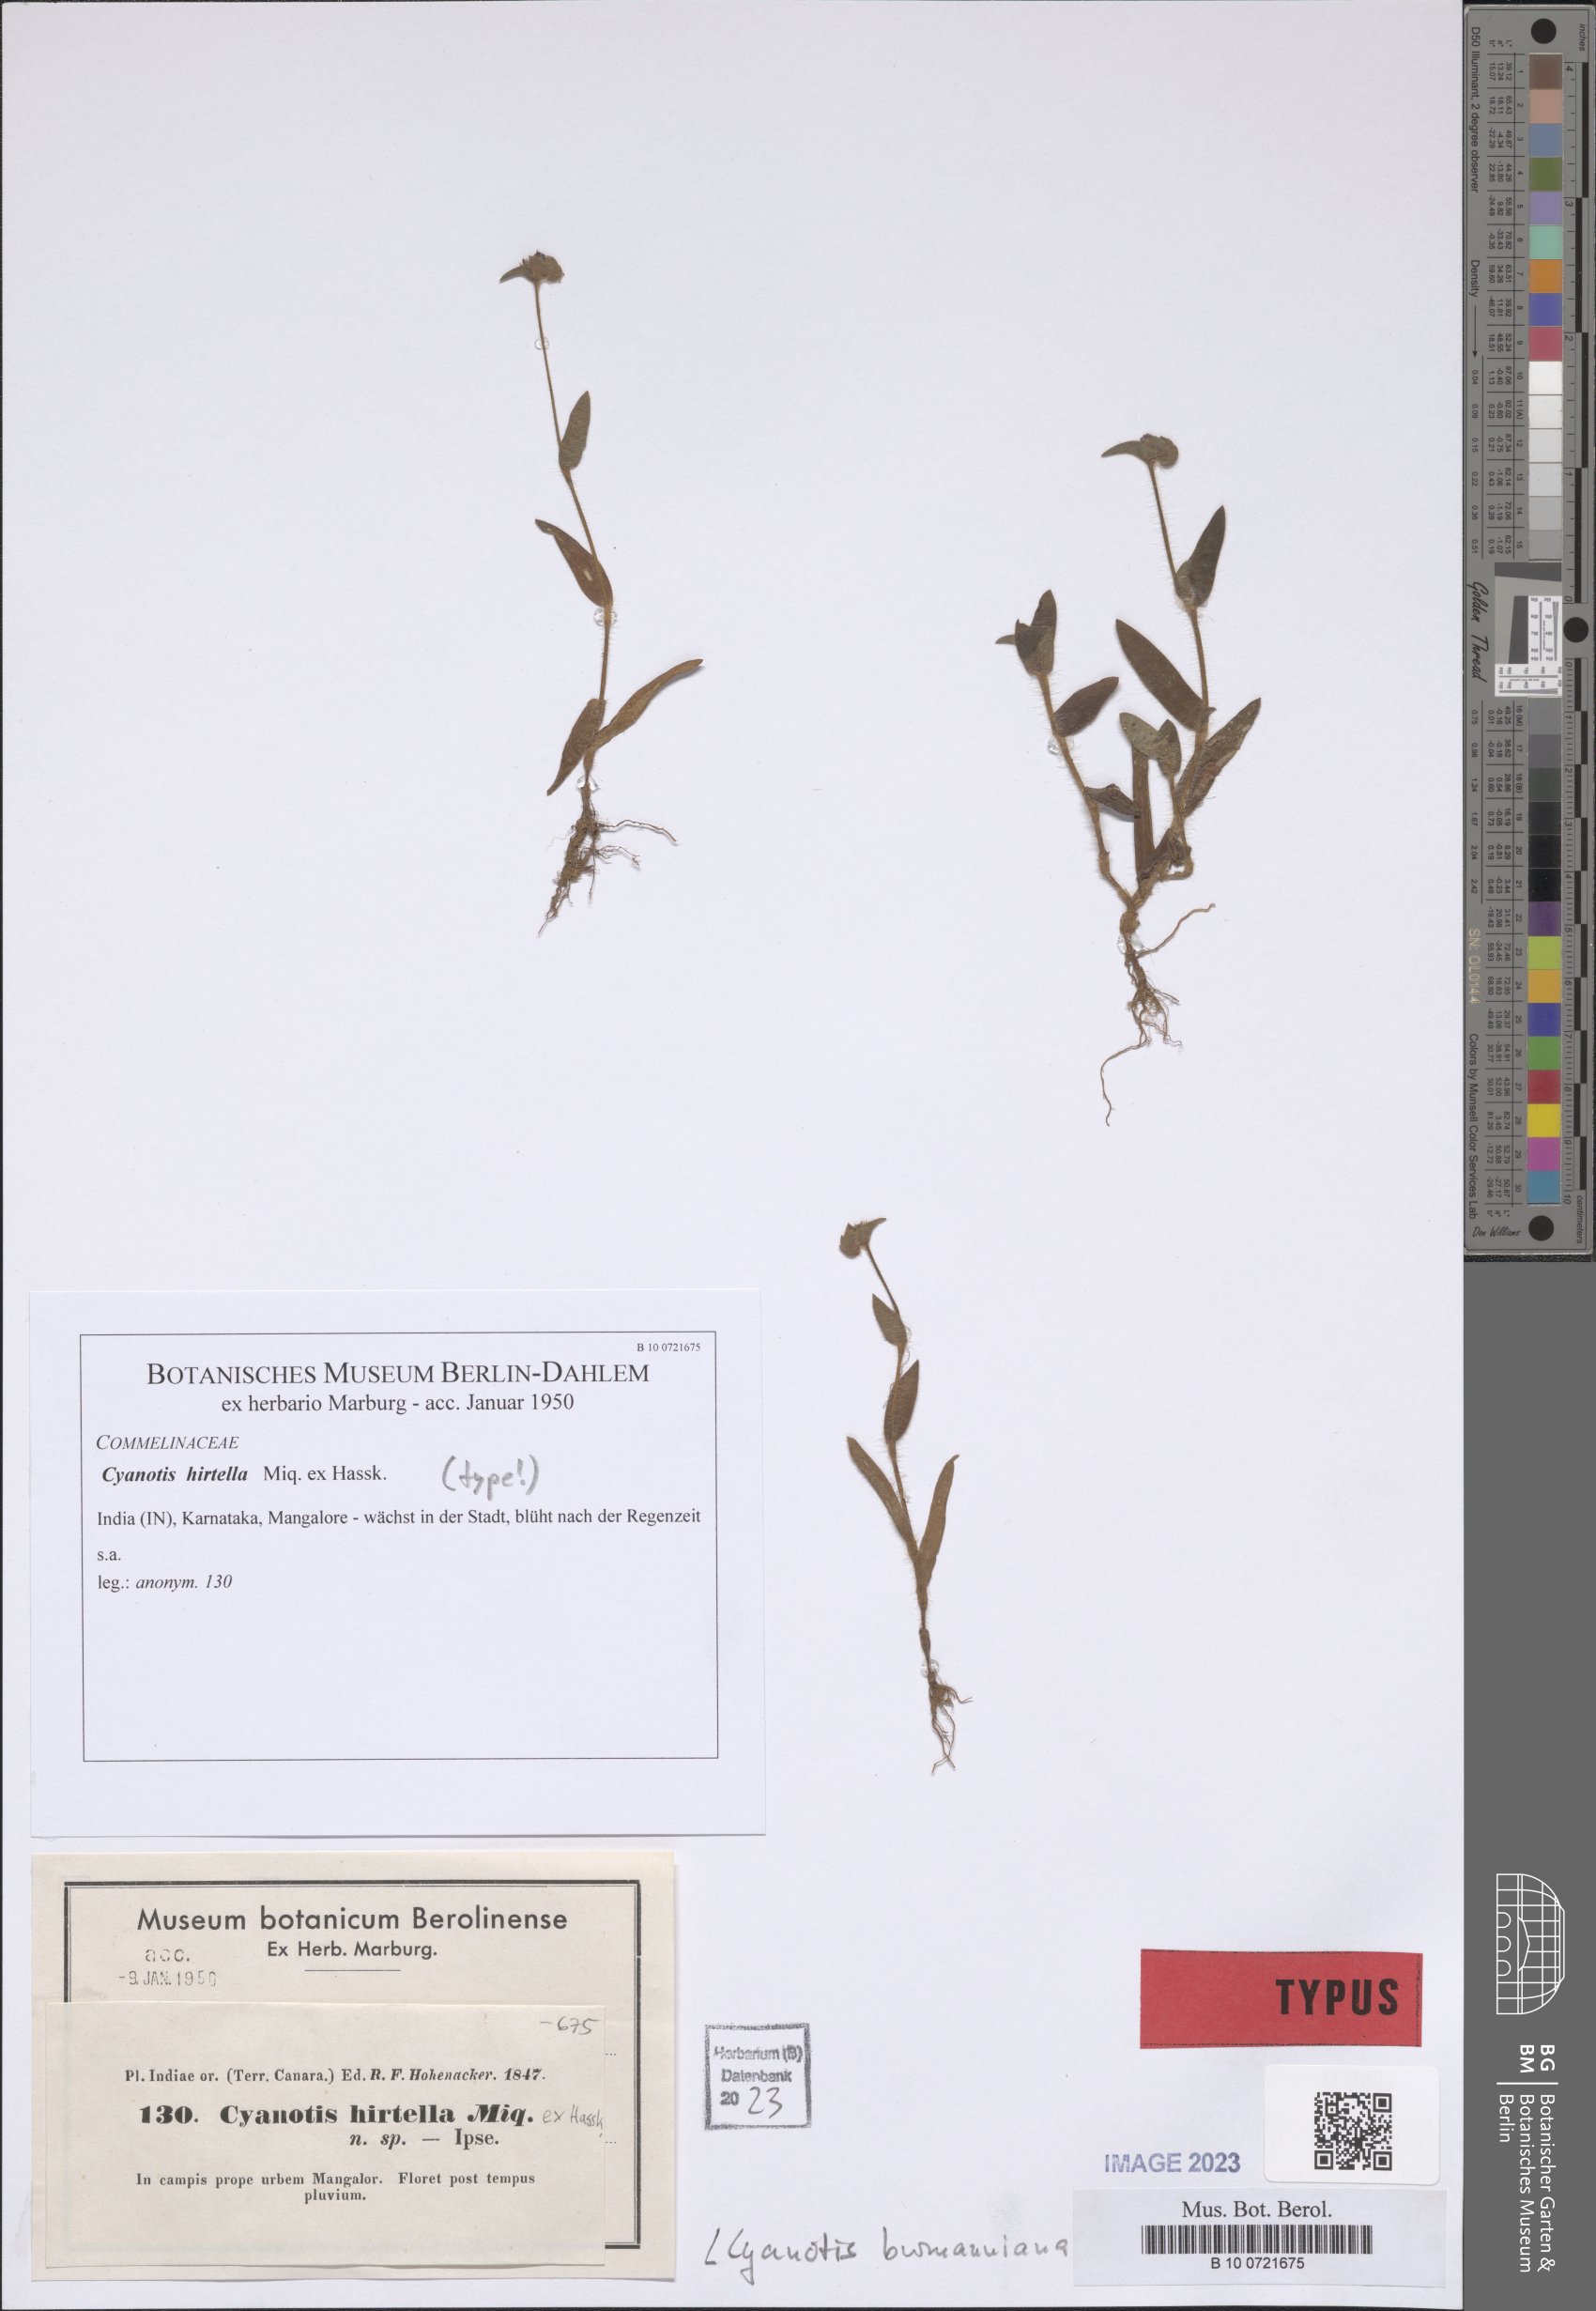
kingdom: Plantae
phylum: Tracheophyta
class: Liliopsida
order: Commelinales
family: Commelinaceae
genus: Cyanotis
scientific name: Cyanotis burmanniana
